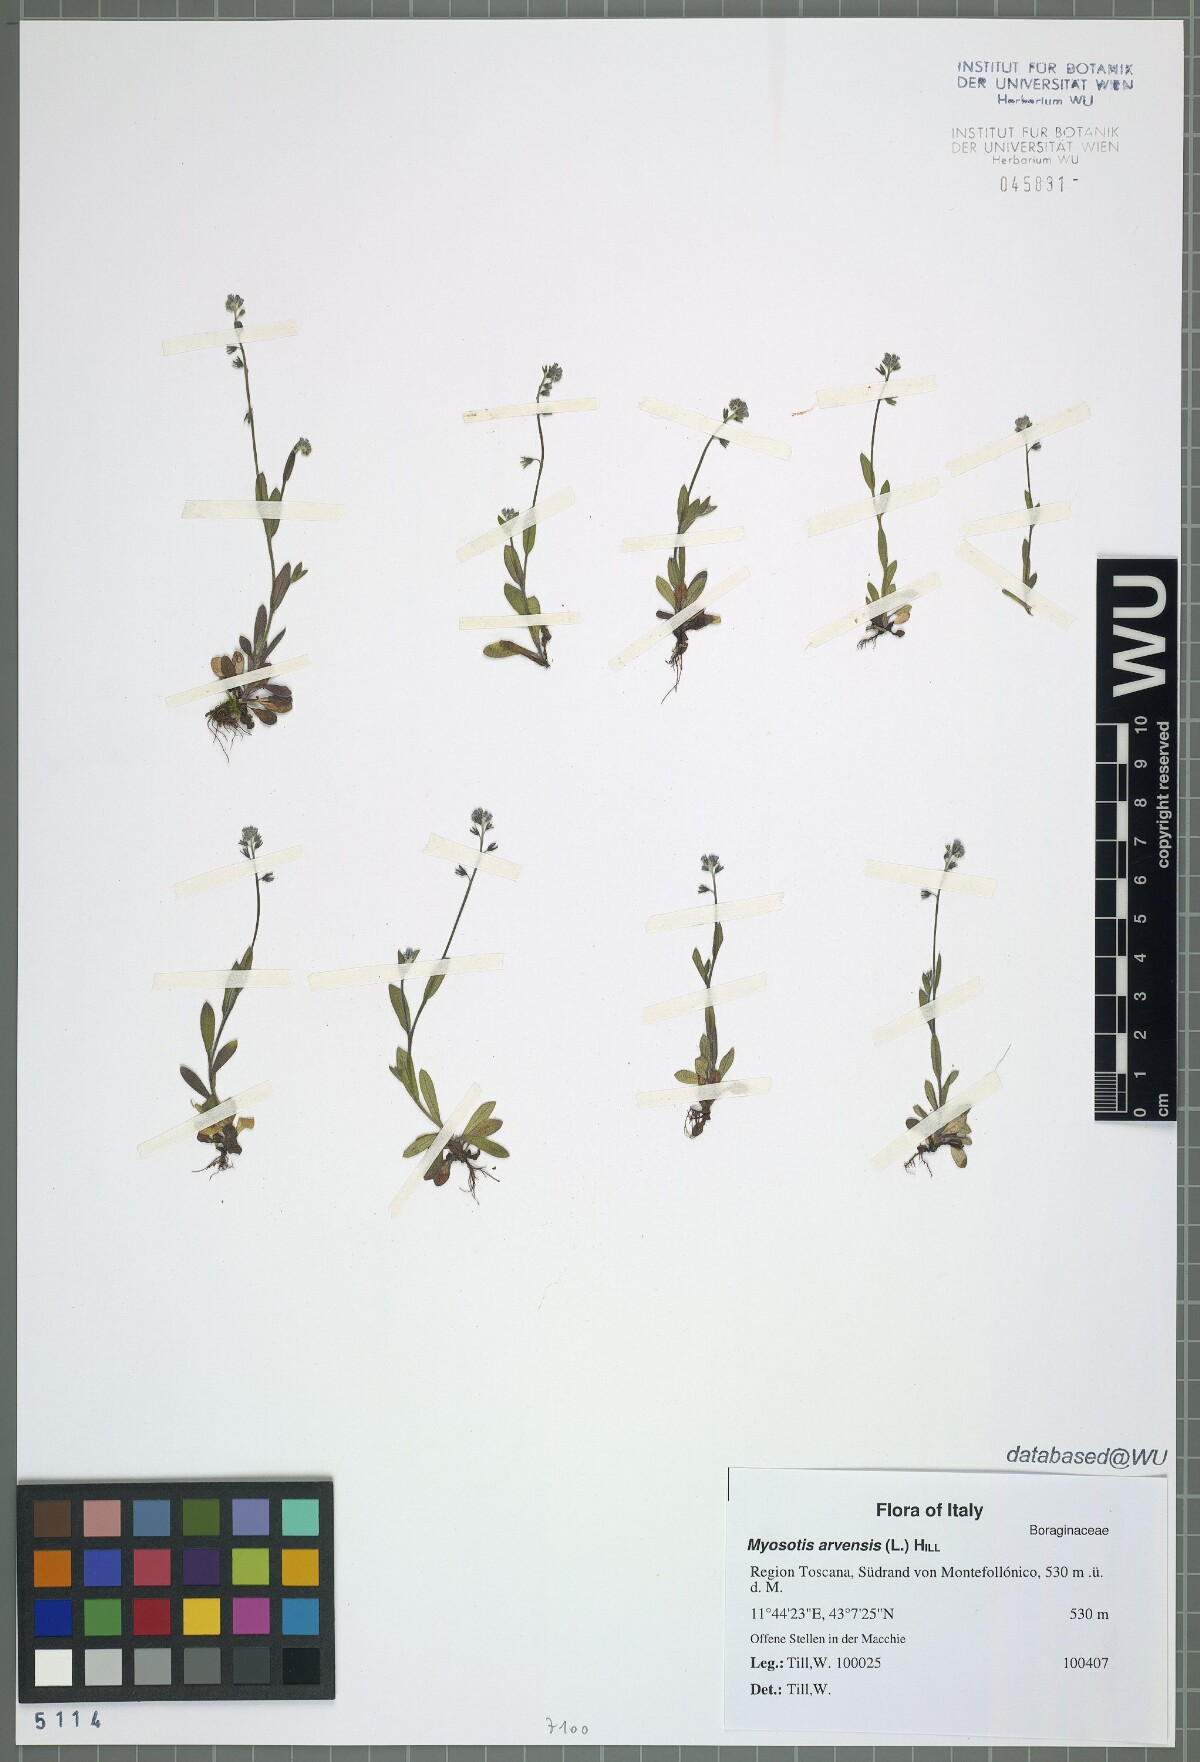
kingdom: Plantae
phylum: Tracheophyta
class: Magnoliopsida
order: Boraginales
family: Boraginaceae
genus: Myosotis
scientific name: Myosotis arvensis
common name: Field forget-me-not
